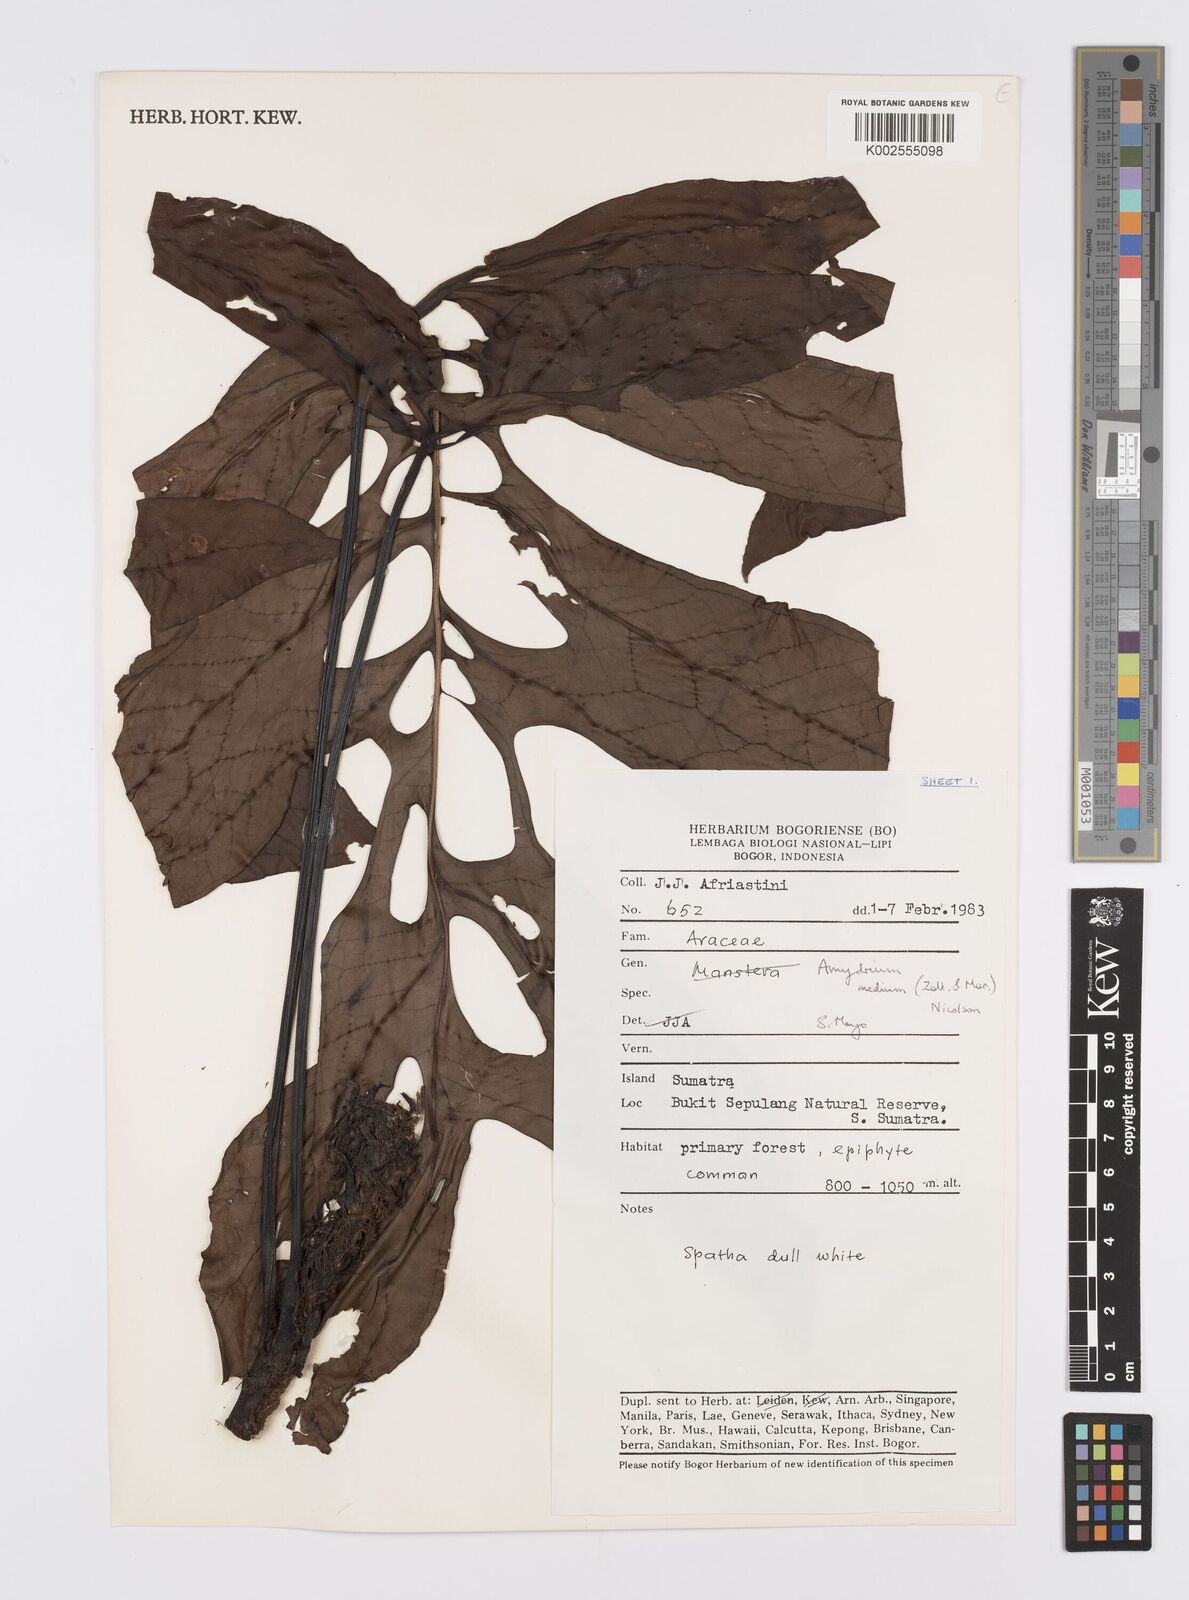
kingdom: Plantae
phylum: Tracheophyta
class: Liliopsida
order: Alismatales
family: Araceae
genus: Amydrium
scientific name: Amydrium medium
